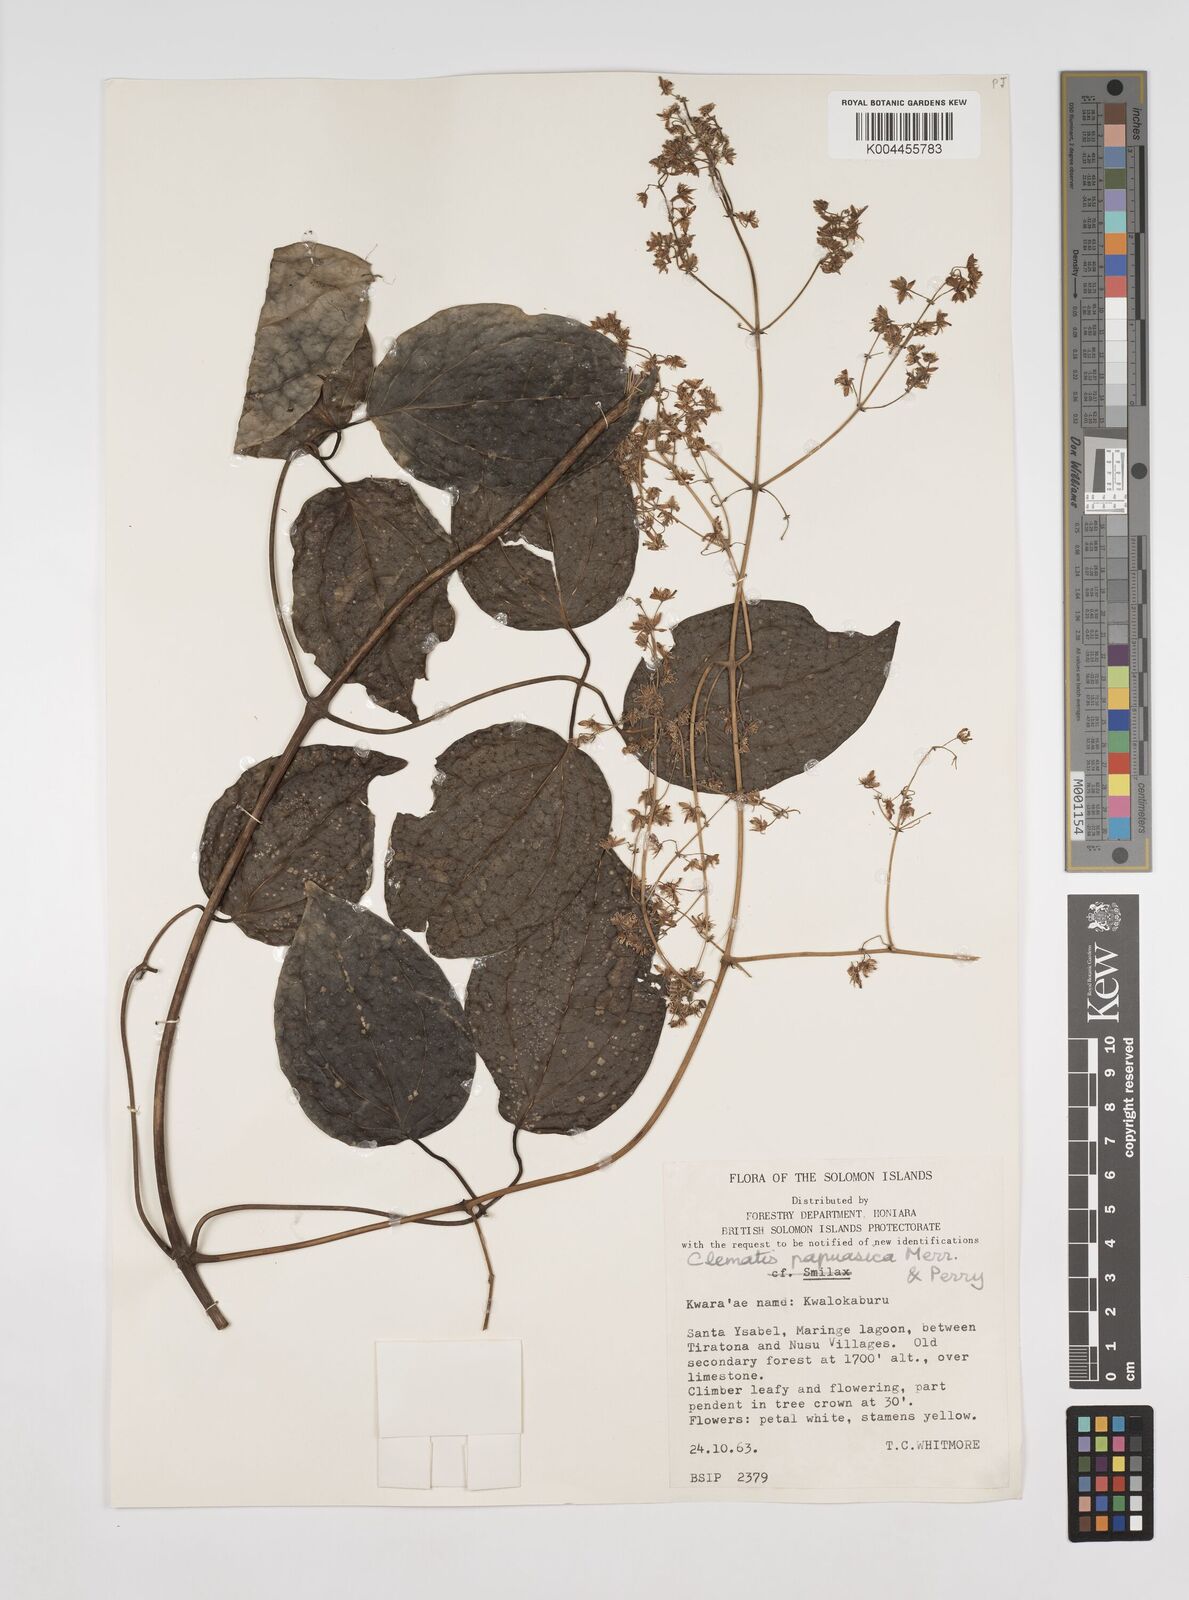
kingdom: Plantae
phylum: Tracheophyta
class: Magnoliopsida
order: Ranunculales
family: Ranunculaceae
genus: Clematis
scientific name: Clematis papuasica
